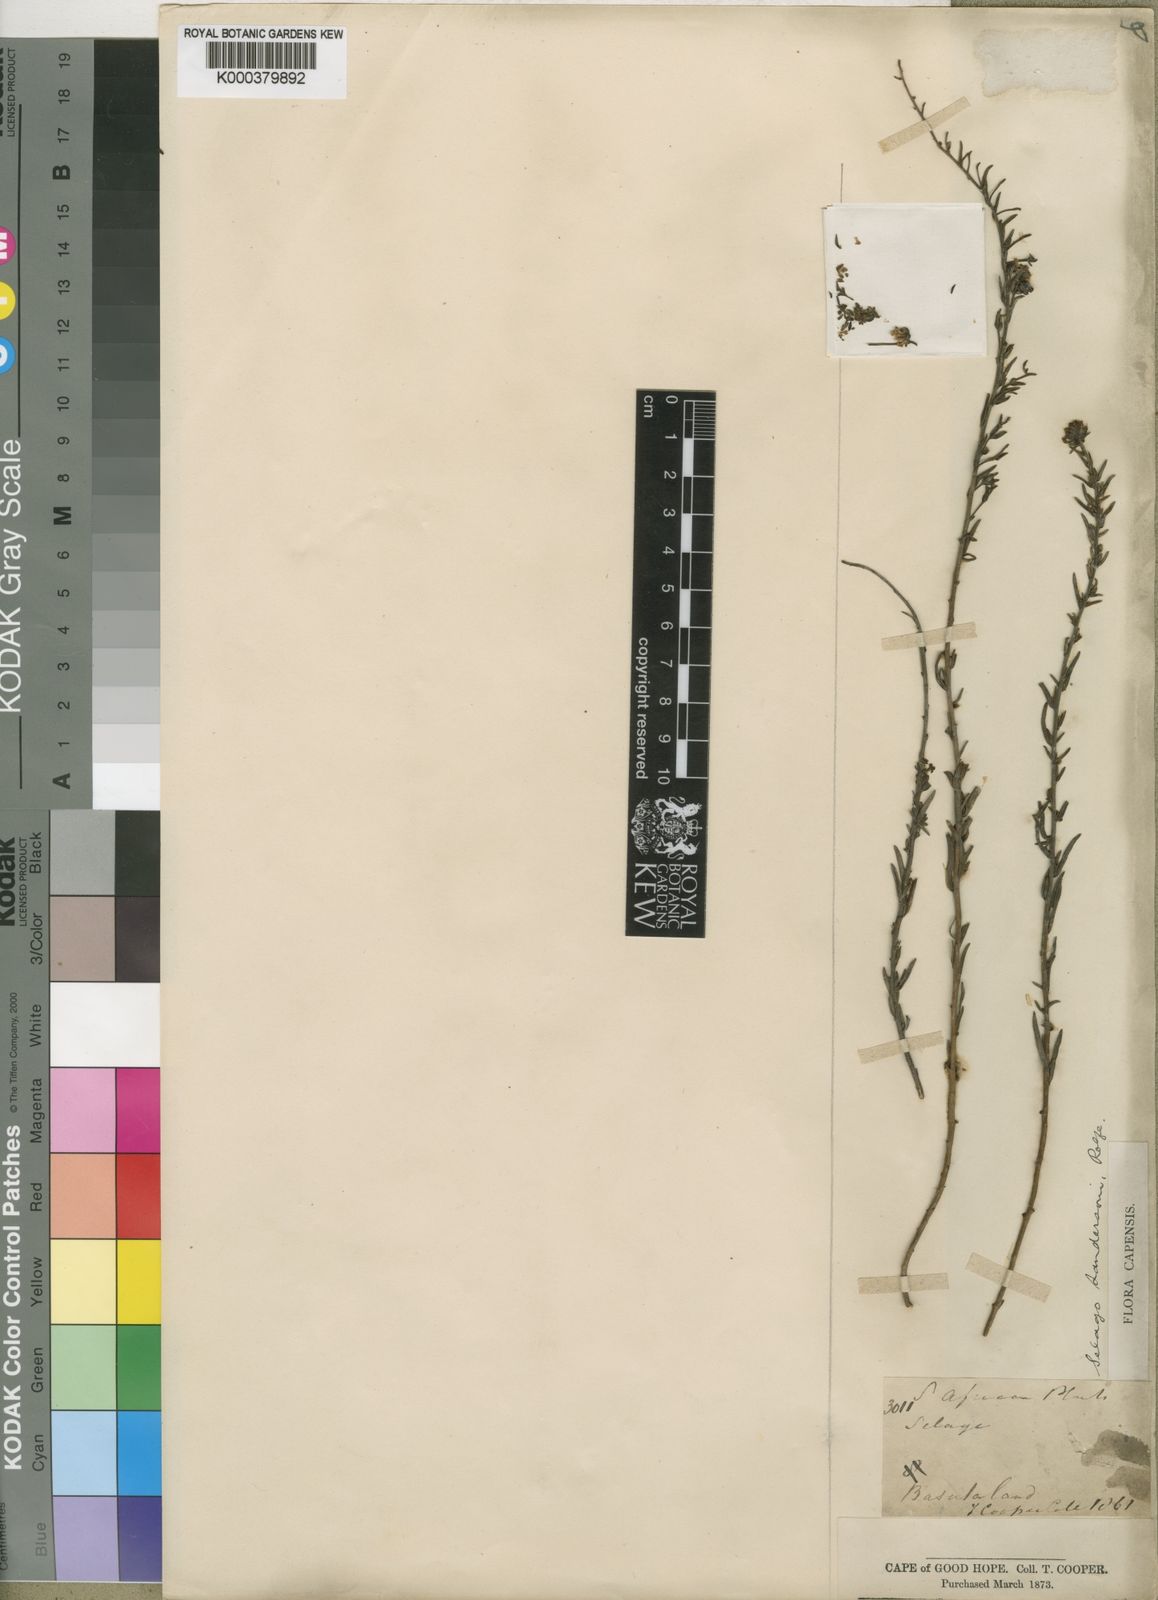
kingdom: Plantae
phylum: Tracheophyta
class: Magnoliopsida
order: Lamiales
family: Scrophulariaceae
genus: Selago
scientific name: Selago galpinii
